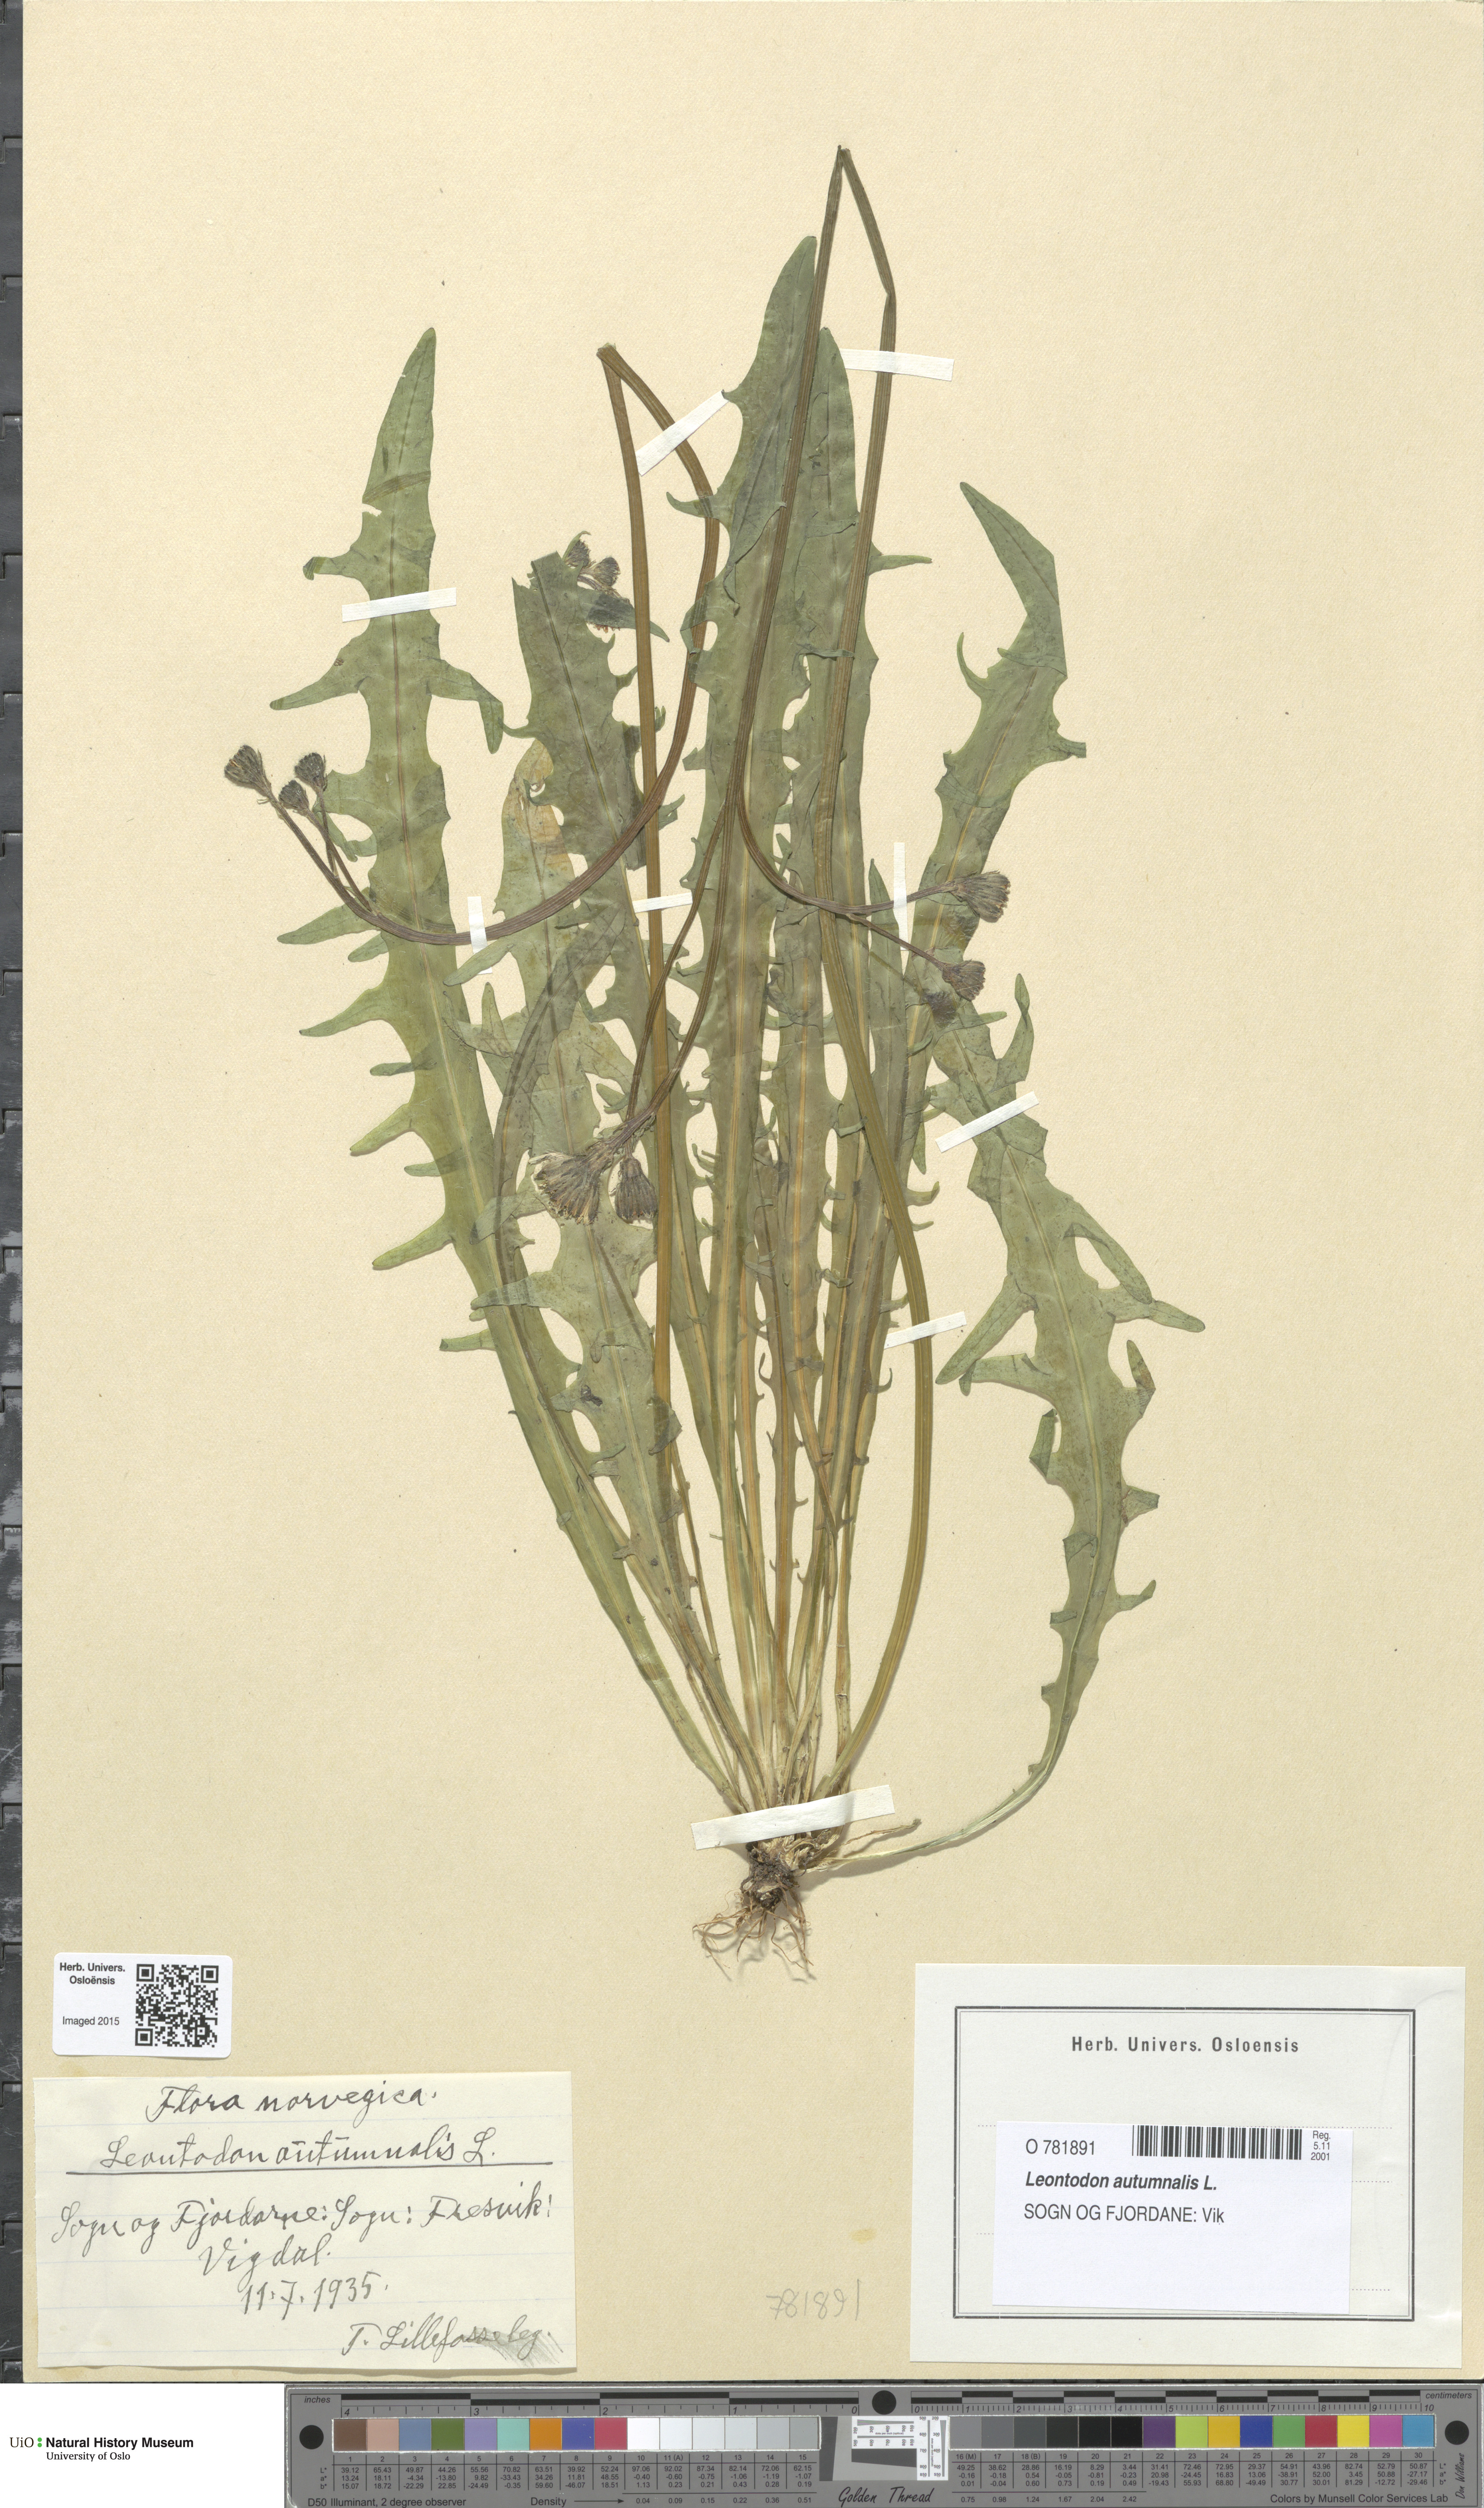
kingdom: Plantae
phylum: Tracheophyta
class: Magnoliopsida
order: Asterales
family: Asteraceae
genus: Scorzoneroides
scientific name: Scorzoneroides autumnalis
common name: Autumn hawkbit
